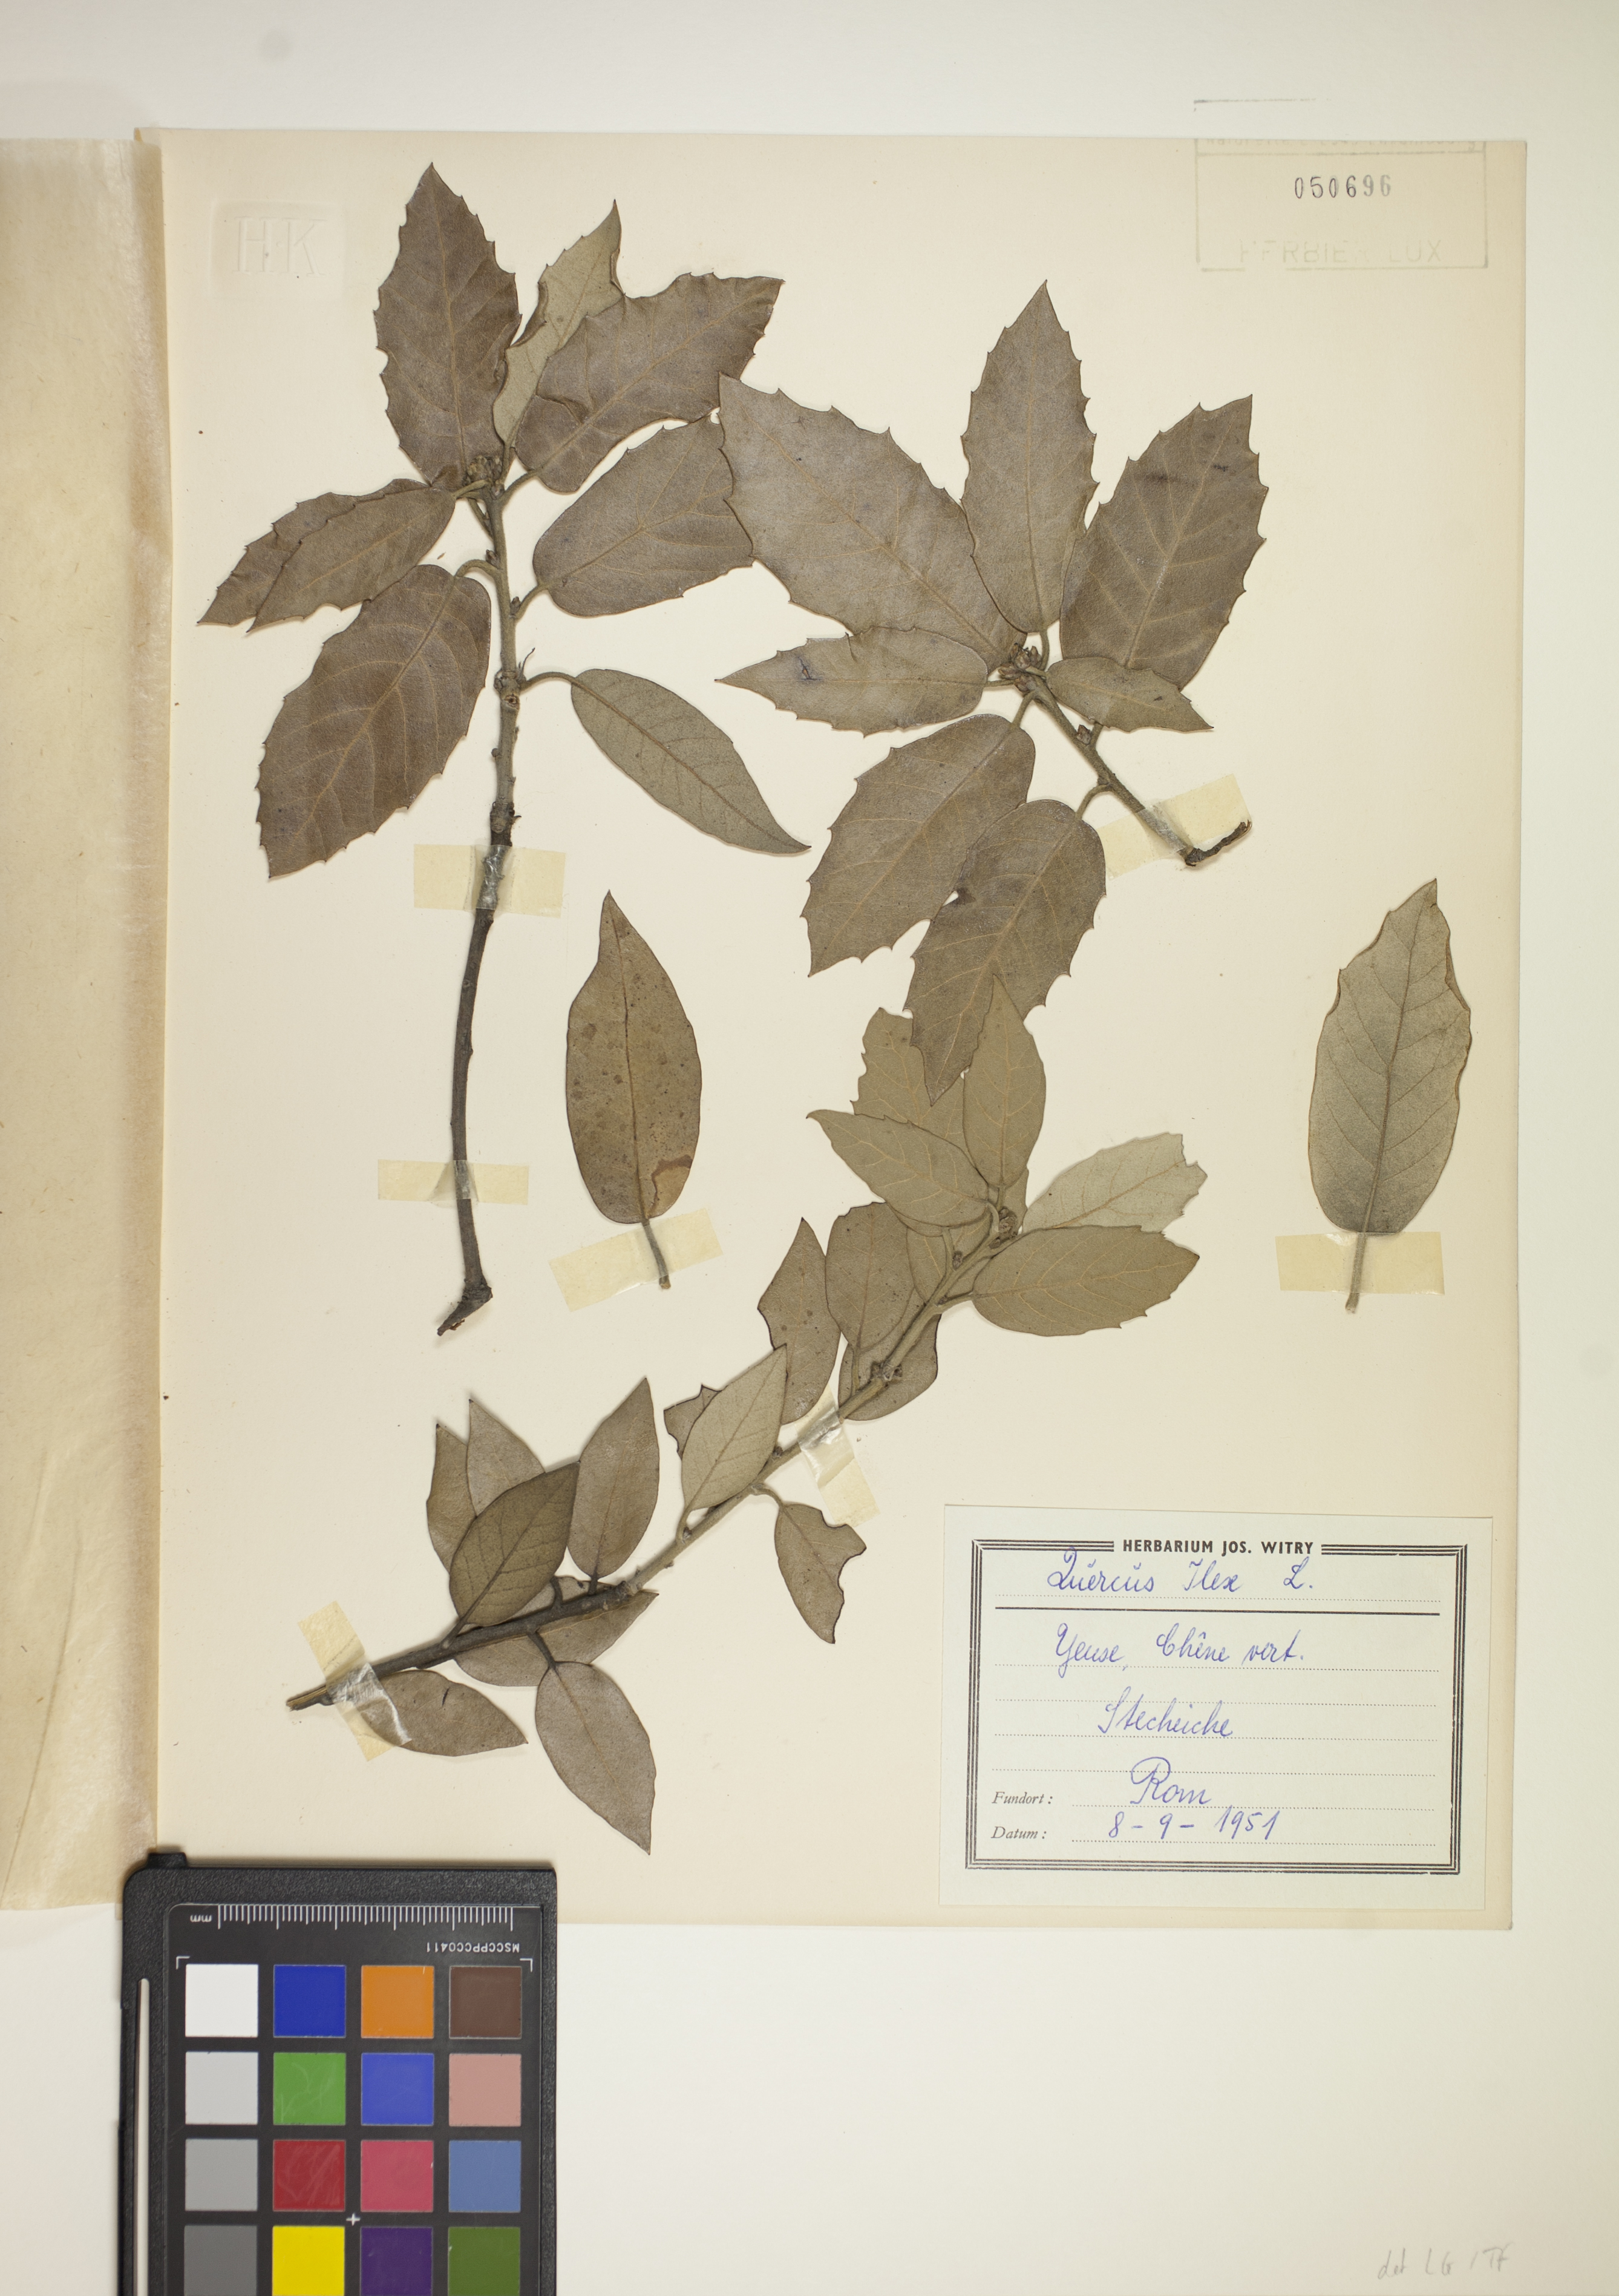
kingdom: Plantae
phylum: Tracheophyta
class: Magnoliopsida
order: Fagales
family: Fagaceae
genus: Quercus
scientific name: Quercus ilex
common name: Evergreen oak
